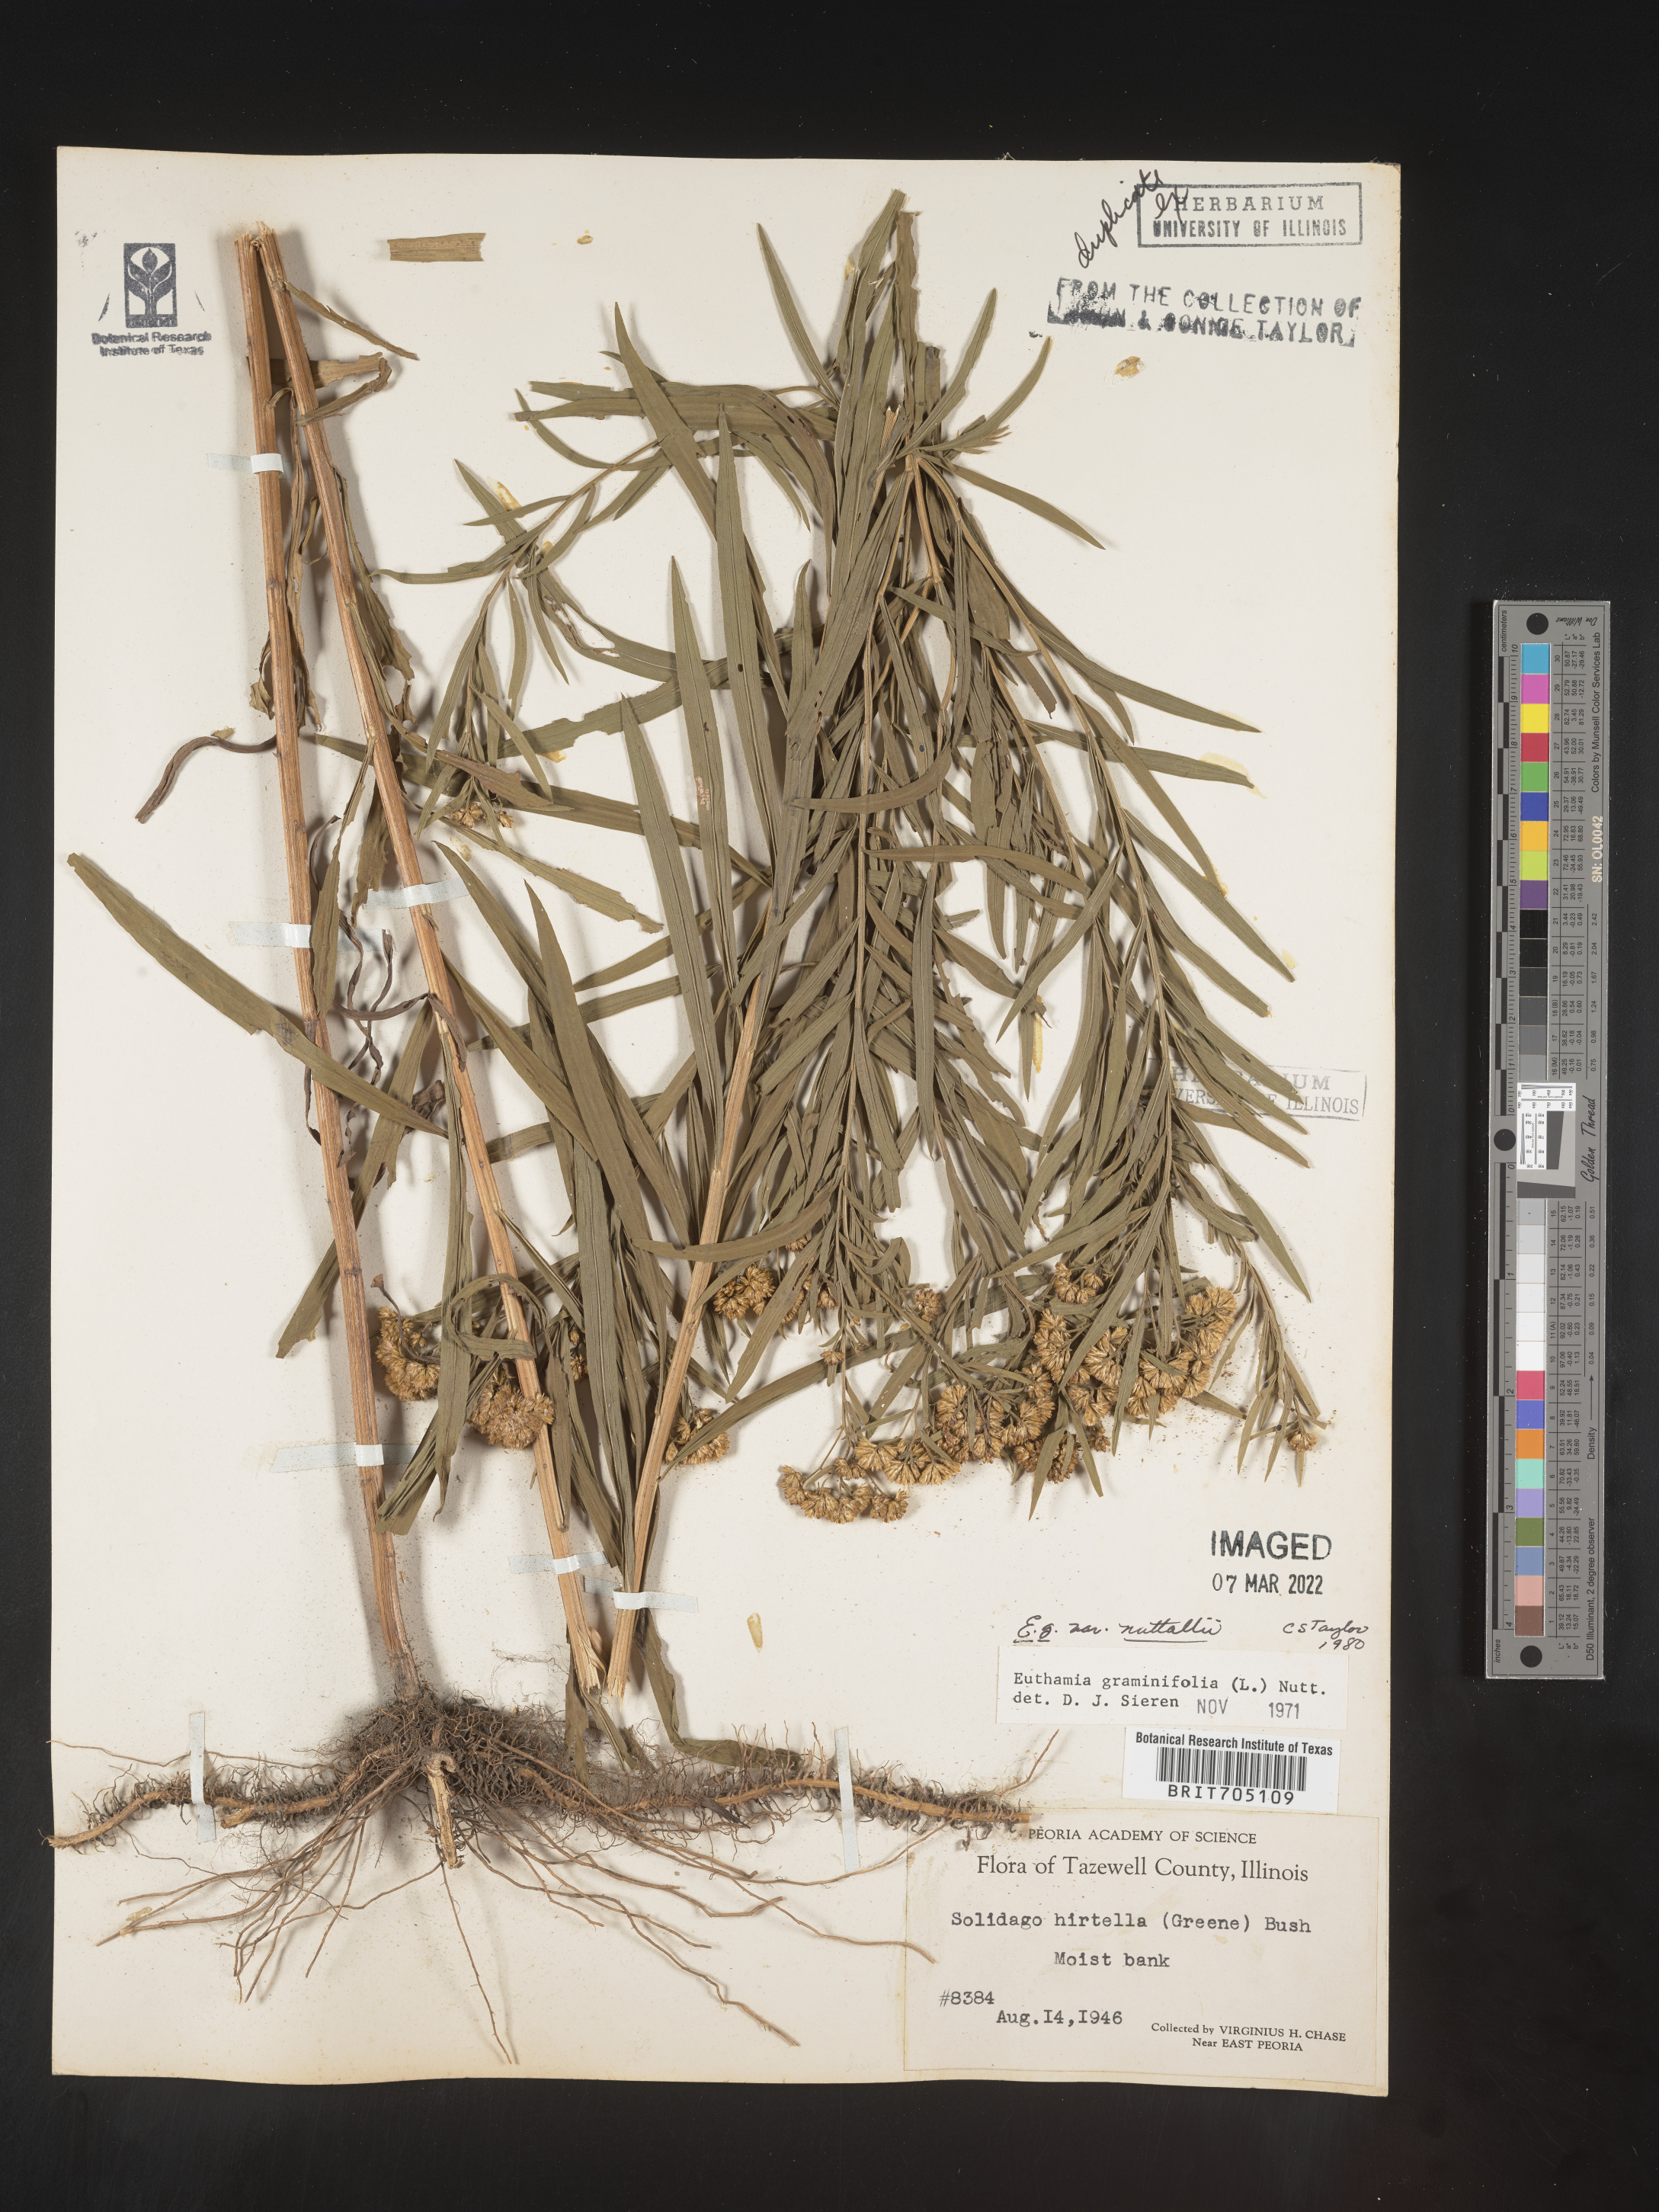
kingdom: Plantae
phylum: Tracheophyta
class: Magnoliopsida
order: Asterales
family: Asteraceae
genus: Euthamia
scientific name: Euthamia graminifolia
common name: Common goldentop
